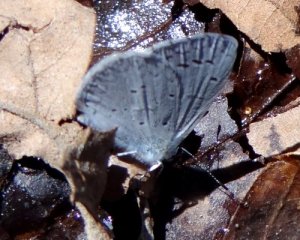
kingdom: Animalia
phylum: Arthropoda
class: Insecta
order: Lepidoptera
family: Lycaenidae
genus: Celastrina
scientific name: Celastrina ladon
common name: Spring Azure
